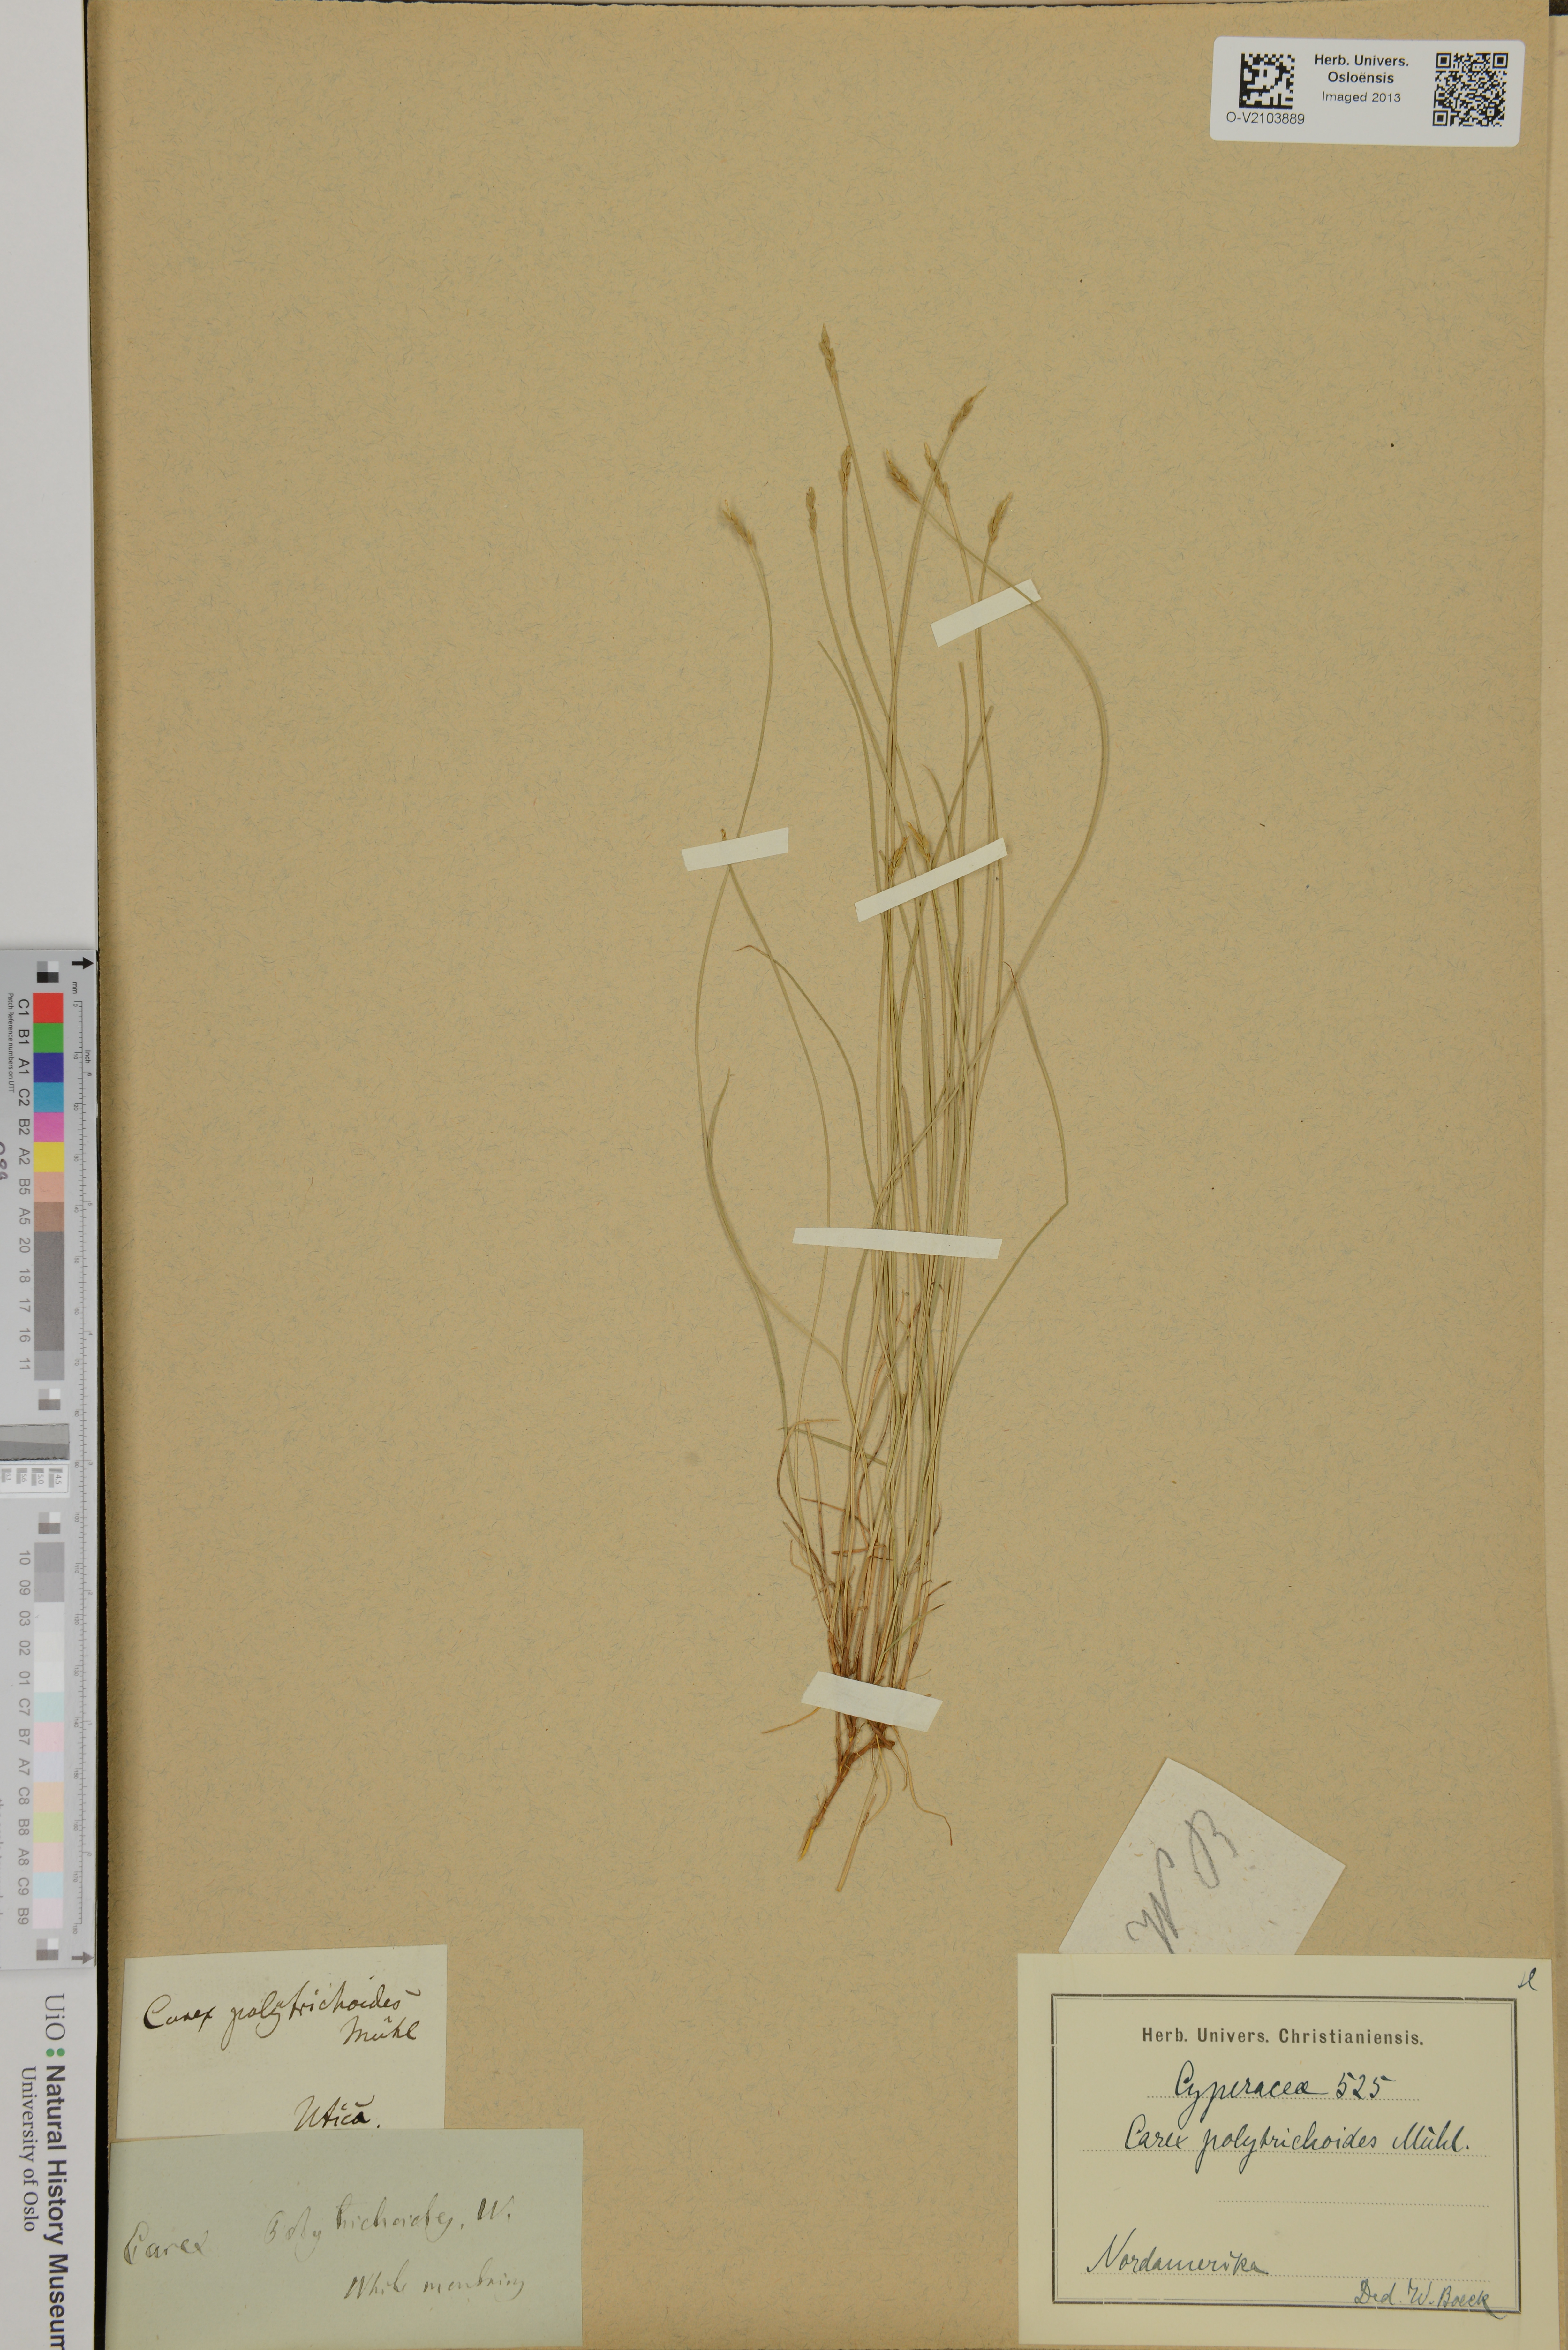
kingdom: Plantae
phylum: Tracheophyta
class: Liliopsida
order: Poales
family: Cyperaceae
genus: Carex
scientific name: Carex polytrichoides
